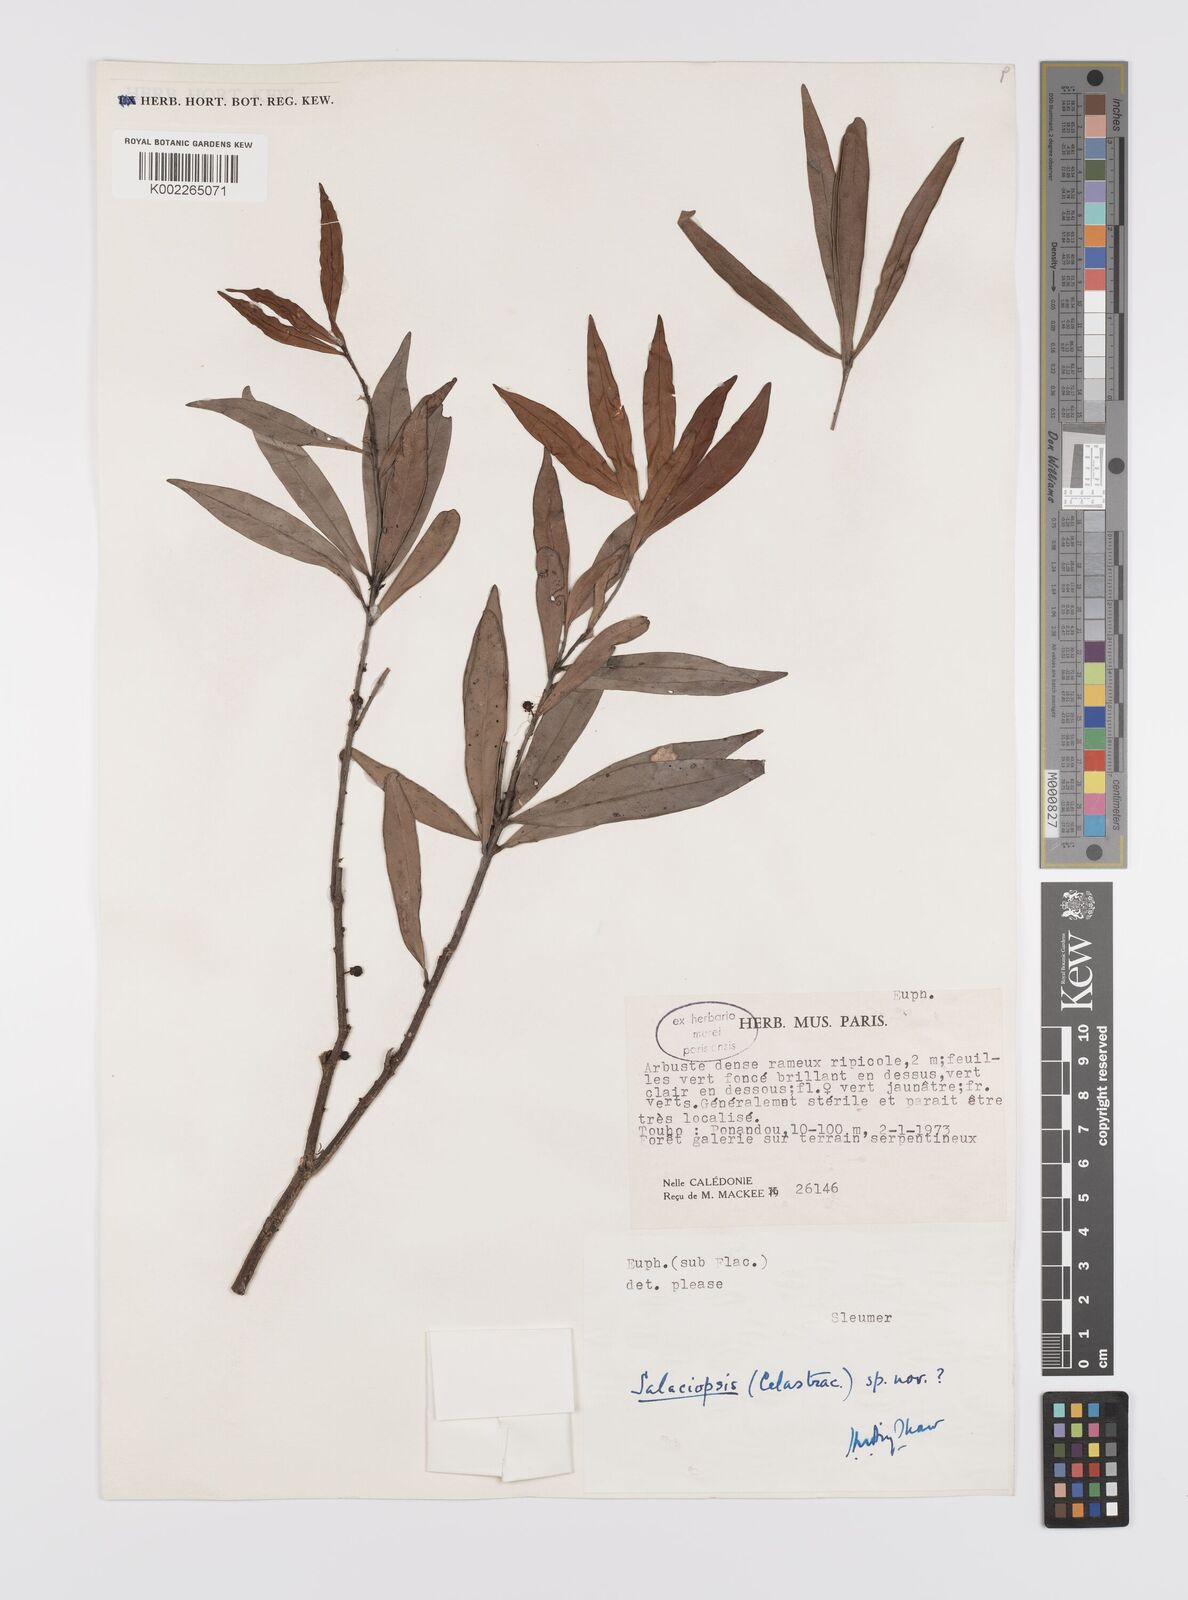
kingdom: Plantae
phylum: Tracheophyta
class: Magnoliopsida
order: Celastrales
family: Celastraceae
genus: Salaciopsis
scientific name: Salaciopsis
